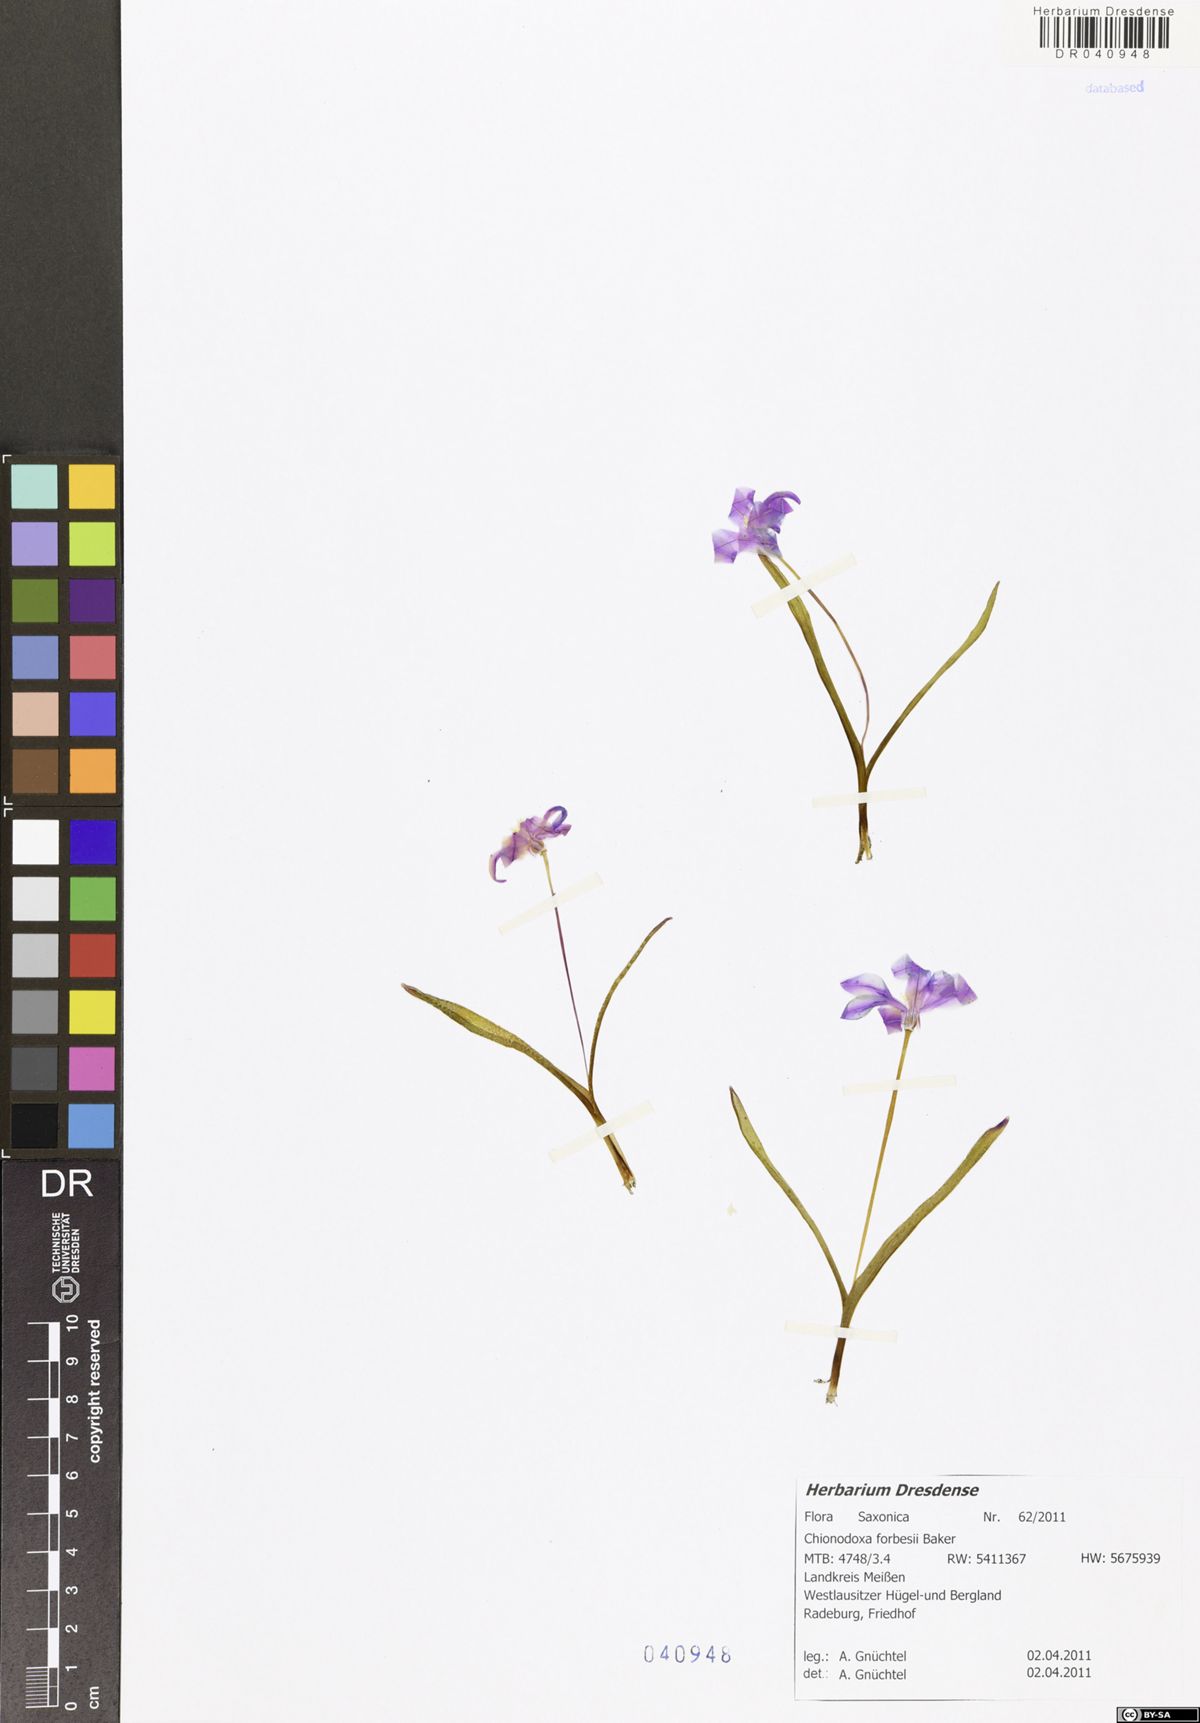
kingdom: Plantae
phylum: Tracheophyta
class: Liliopsida
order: Asparagales
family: Asparagaceae
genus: Scilla
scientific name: Scilla forbesii
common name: Glory-of-the-snow
